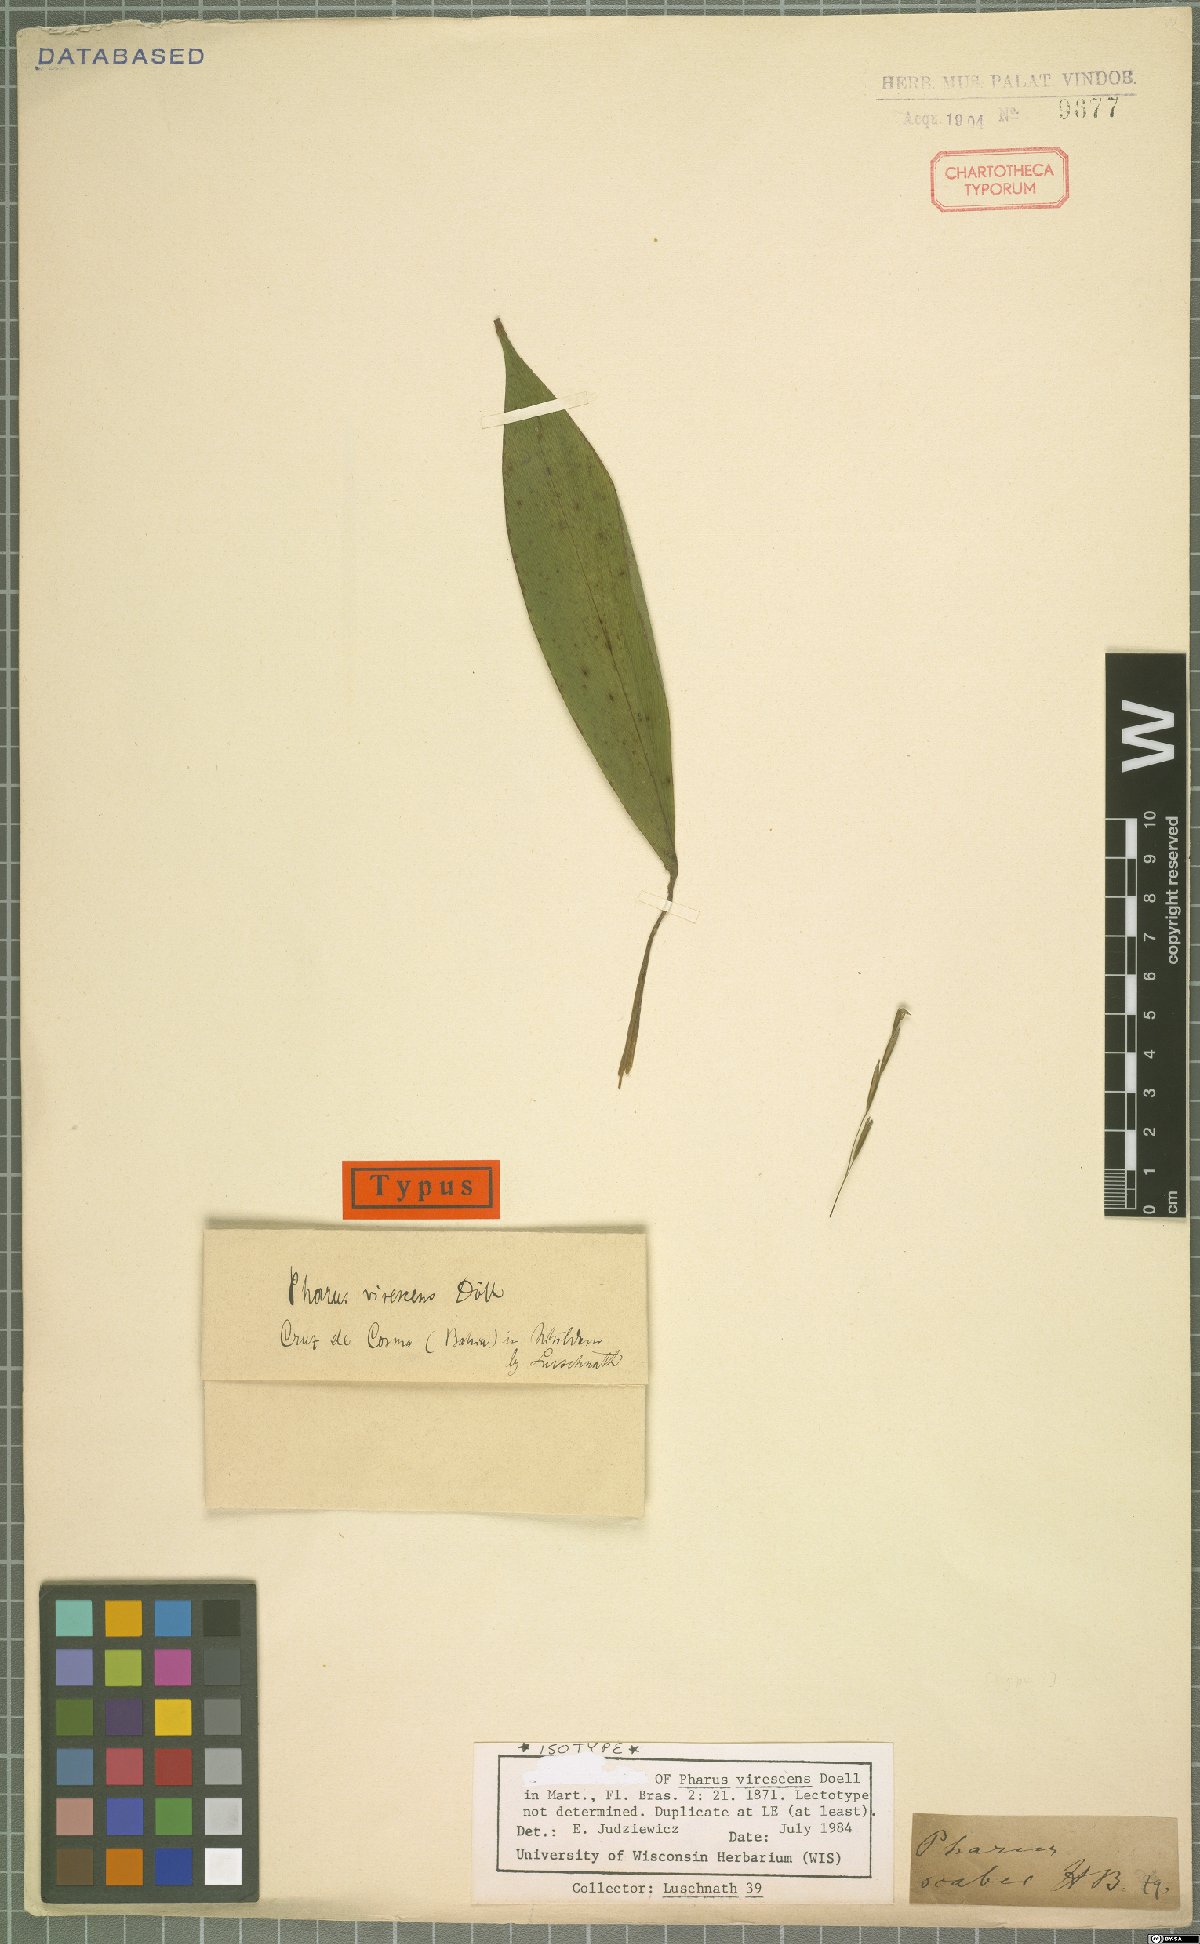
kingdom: Plantae
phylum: Tracheophyta
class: Liliopsida
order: Poales
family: Poaceae
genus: Pharus
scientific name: Pharus virescens
